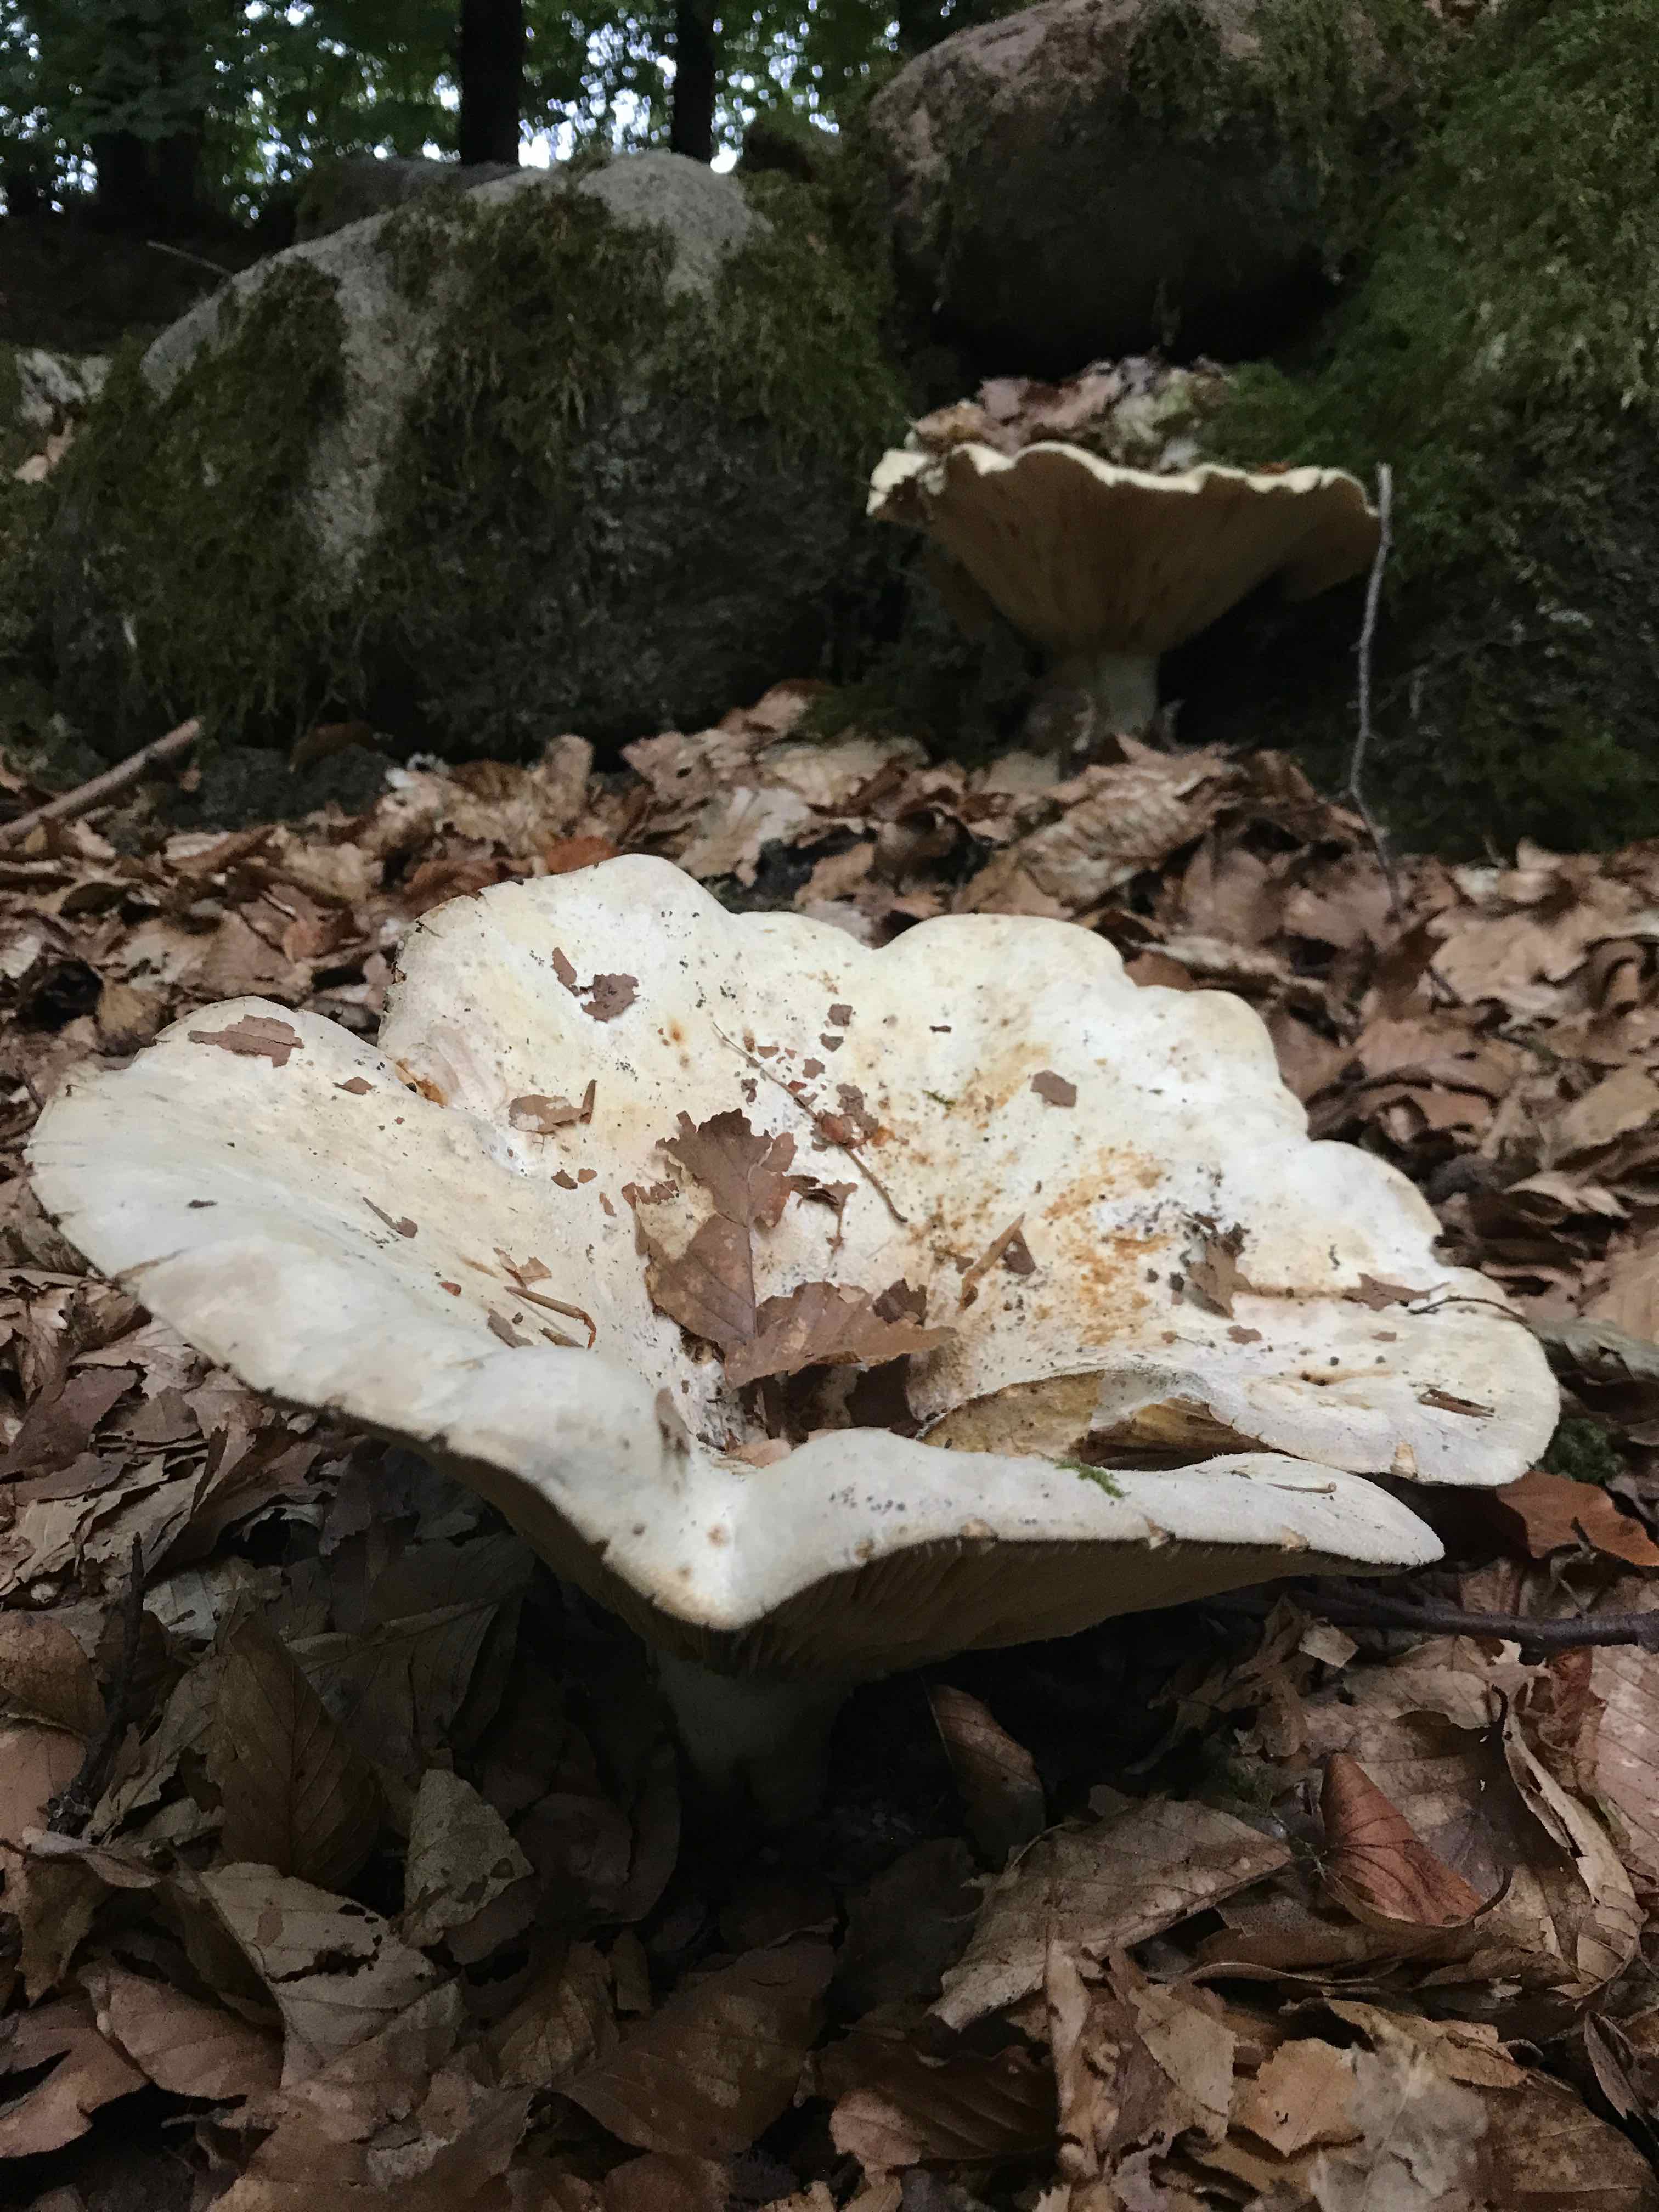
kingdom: Fungi
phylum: Basidiomycota
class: Agaricomycetes
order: Russulales
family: Russulaceae
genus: Lactifluus
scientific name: Lactifluus vellereus
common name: hvidfiltet mælkehat
